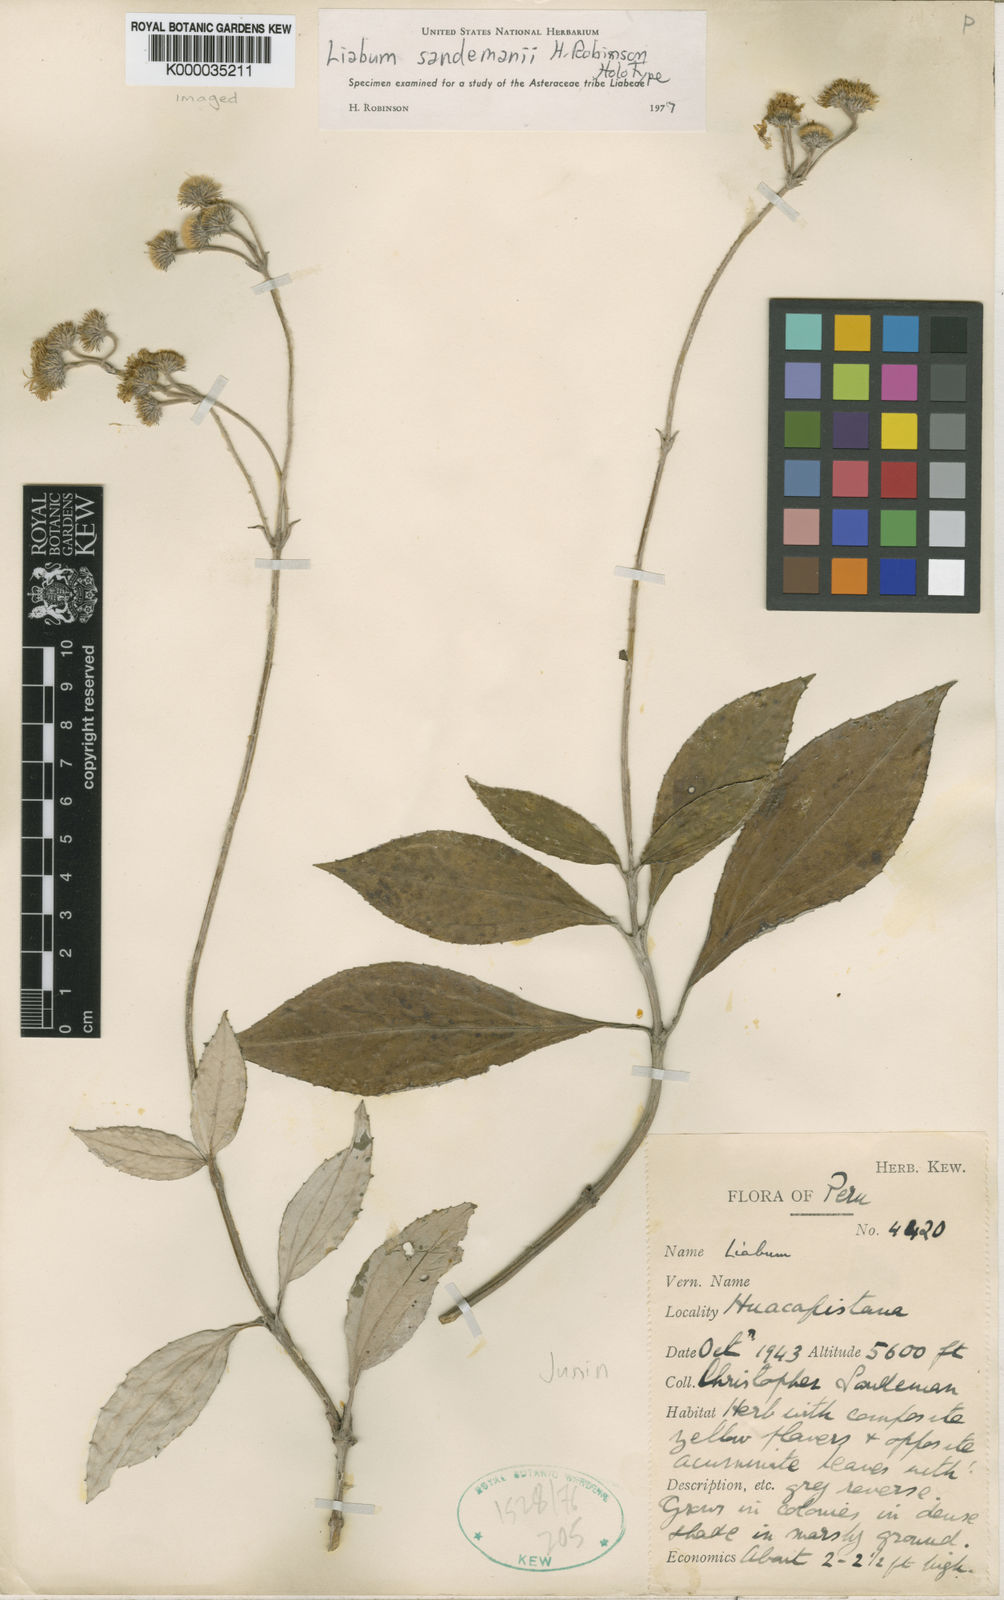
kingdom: Plantae
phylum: Tracheophyta
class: Magnoliopsida
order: Asterales
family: Asteraceae
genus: Liabum
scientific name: Liabum sandemanii
